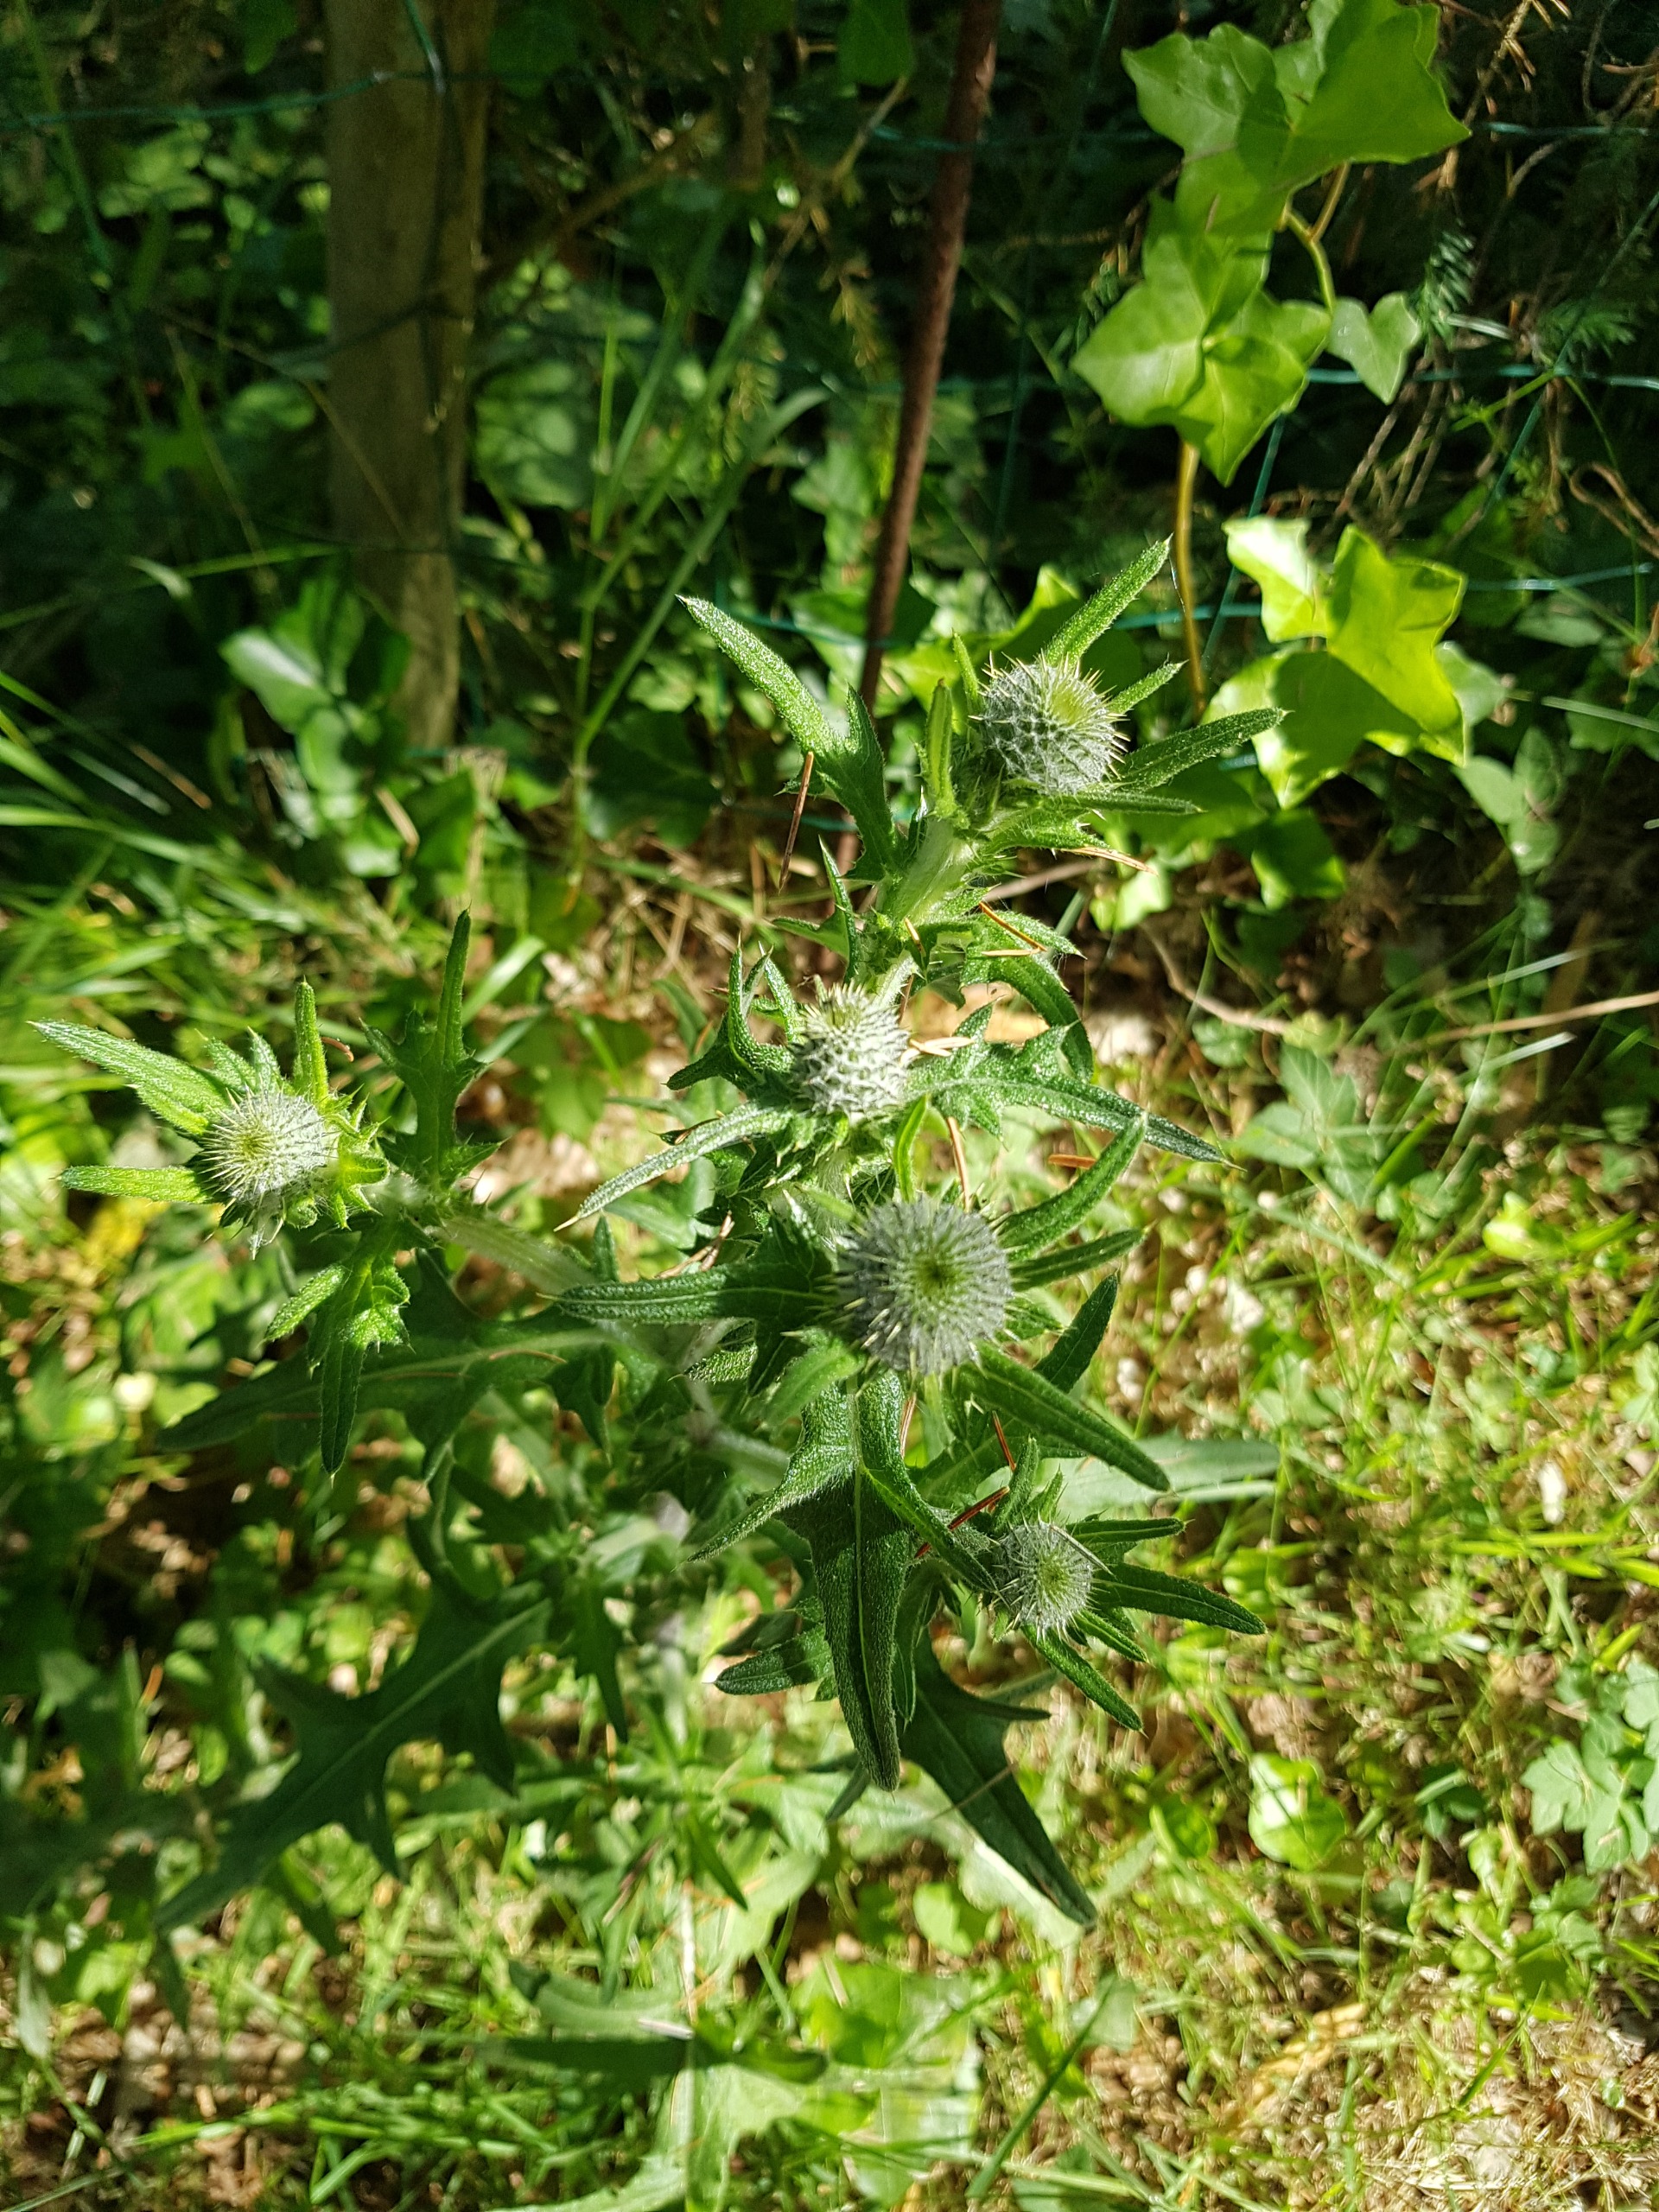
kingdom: Plantae
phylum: Tracheophyta
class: Magnoliopsida
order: Asterales
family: Asteraceae
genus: Cirsium
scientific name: Cirsium vulgare
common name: Horse-tidsel
